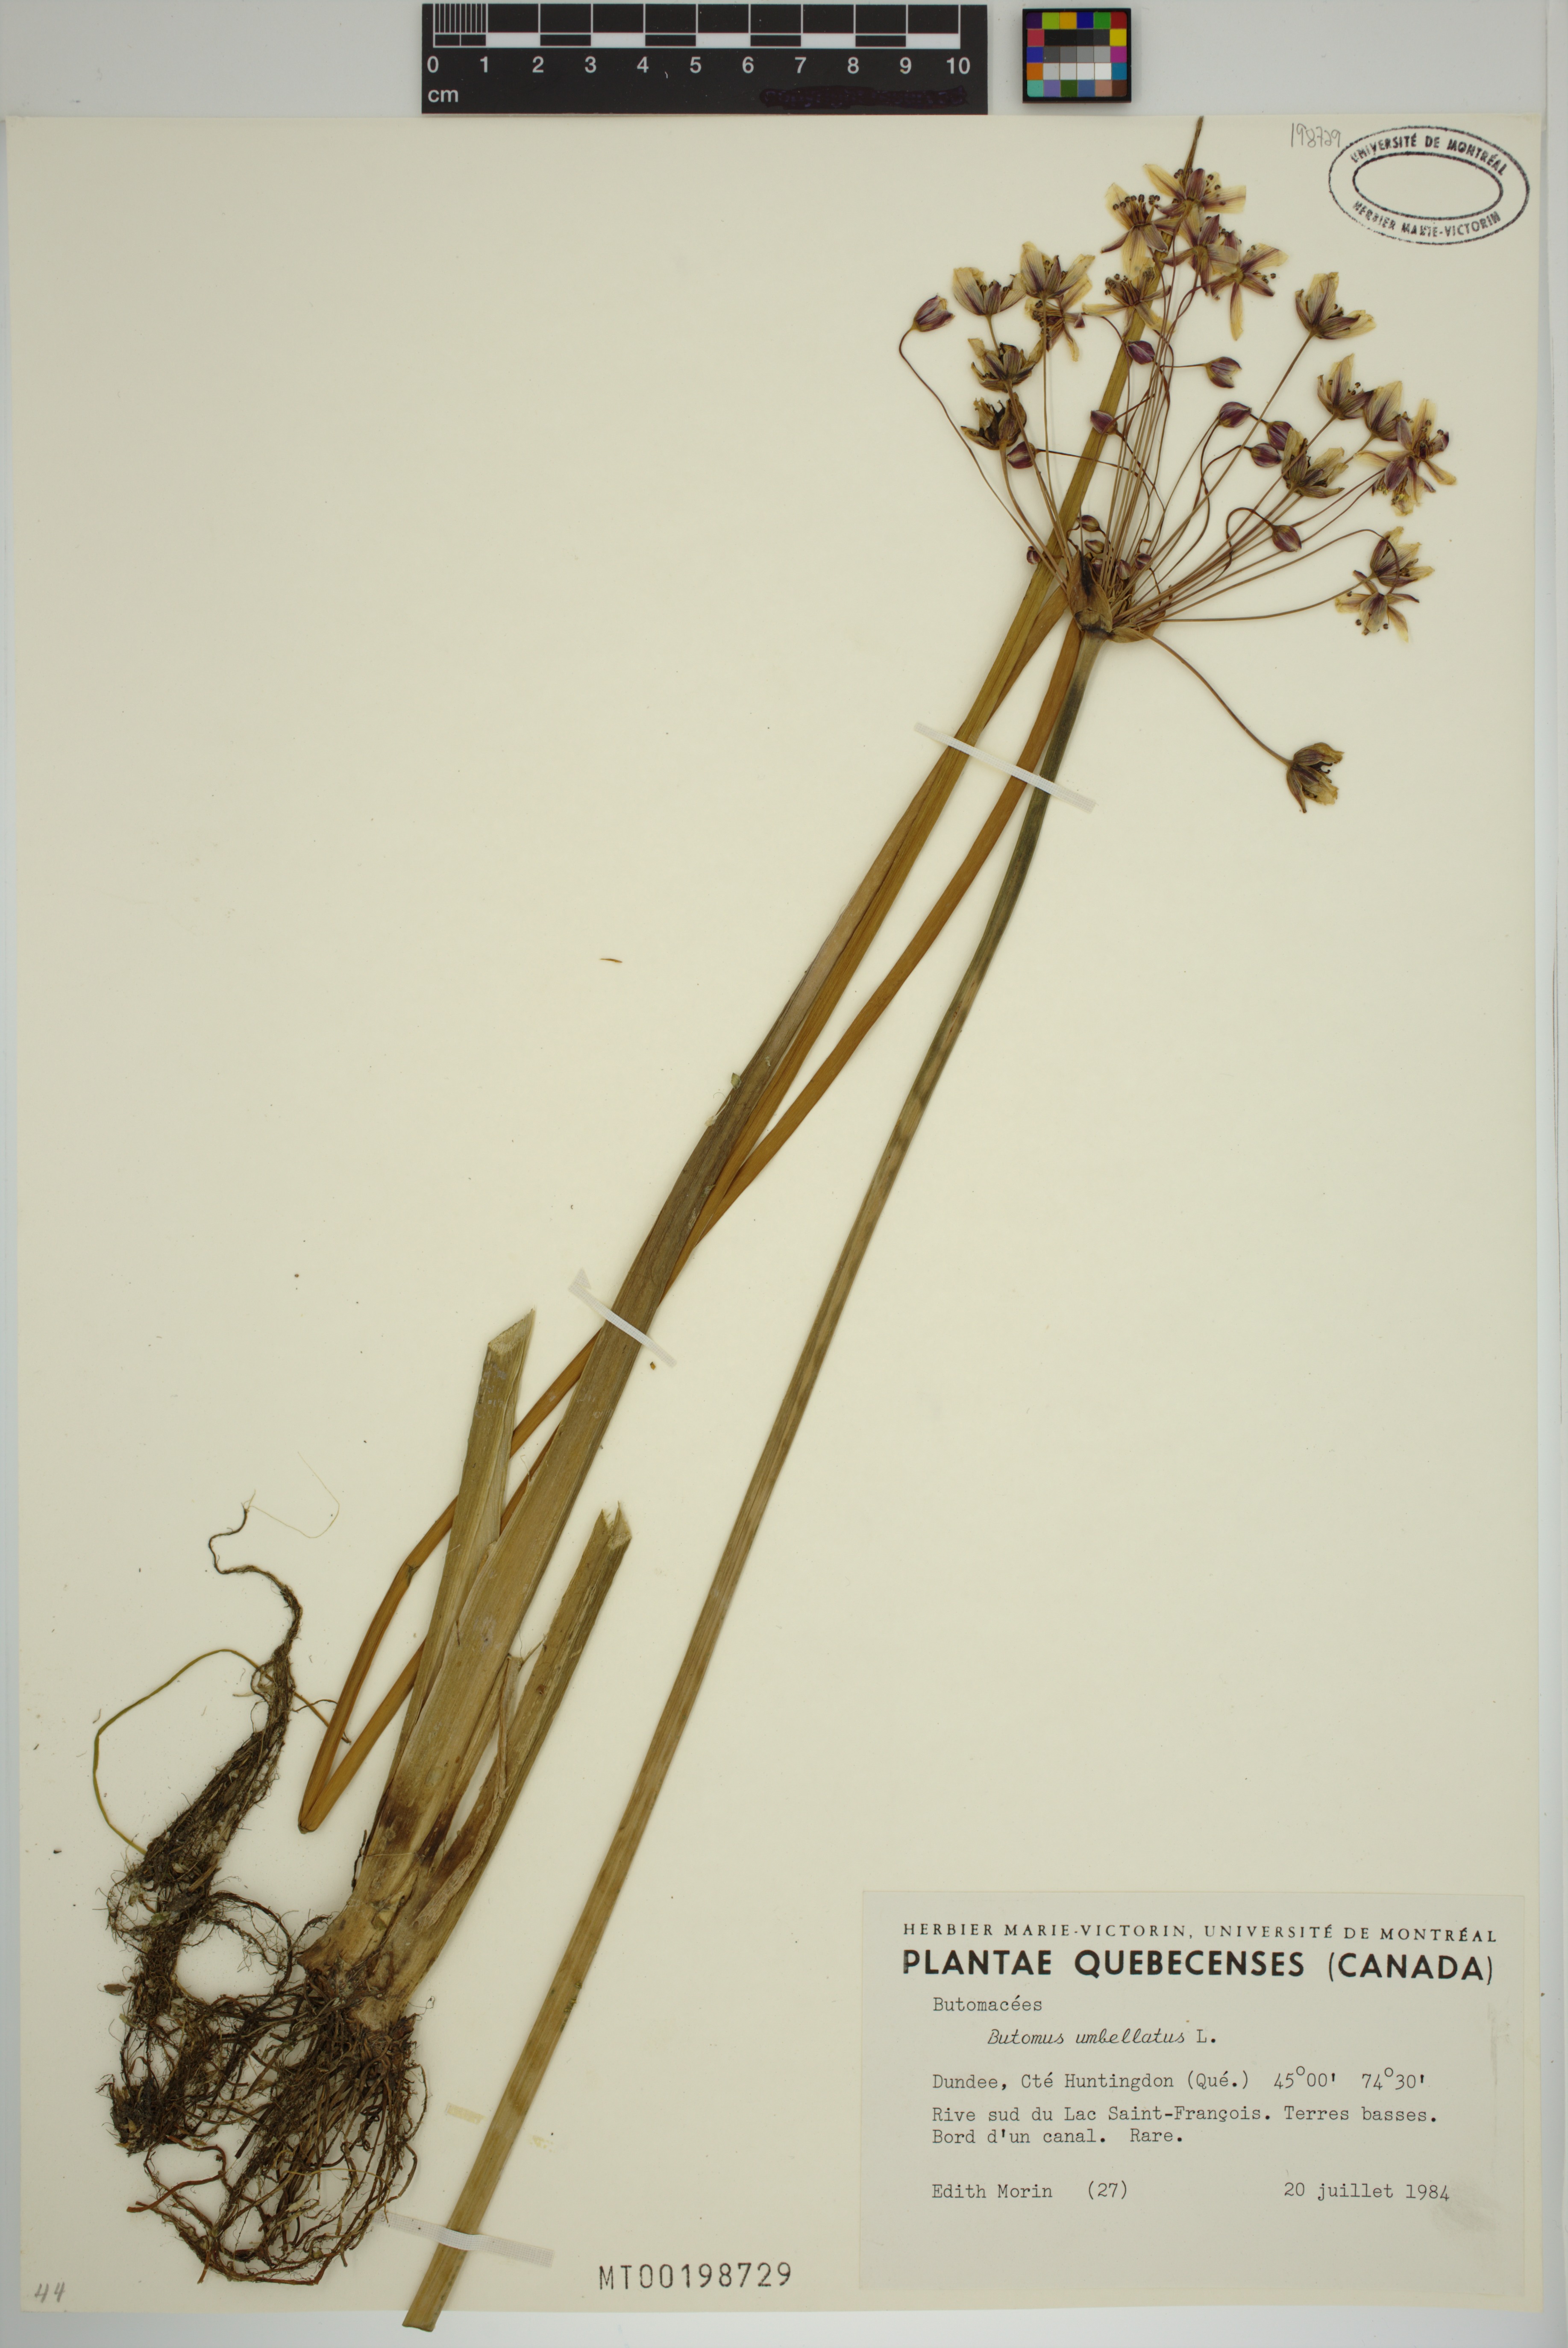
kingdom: Plantae
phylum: Tracheophyta
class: Liliopsida
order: Alismatales
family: Butomaceae
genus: Butomus
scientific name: Butomus umbellatus
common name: Flowering-rush
